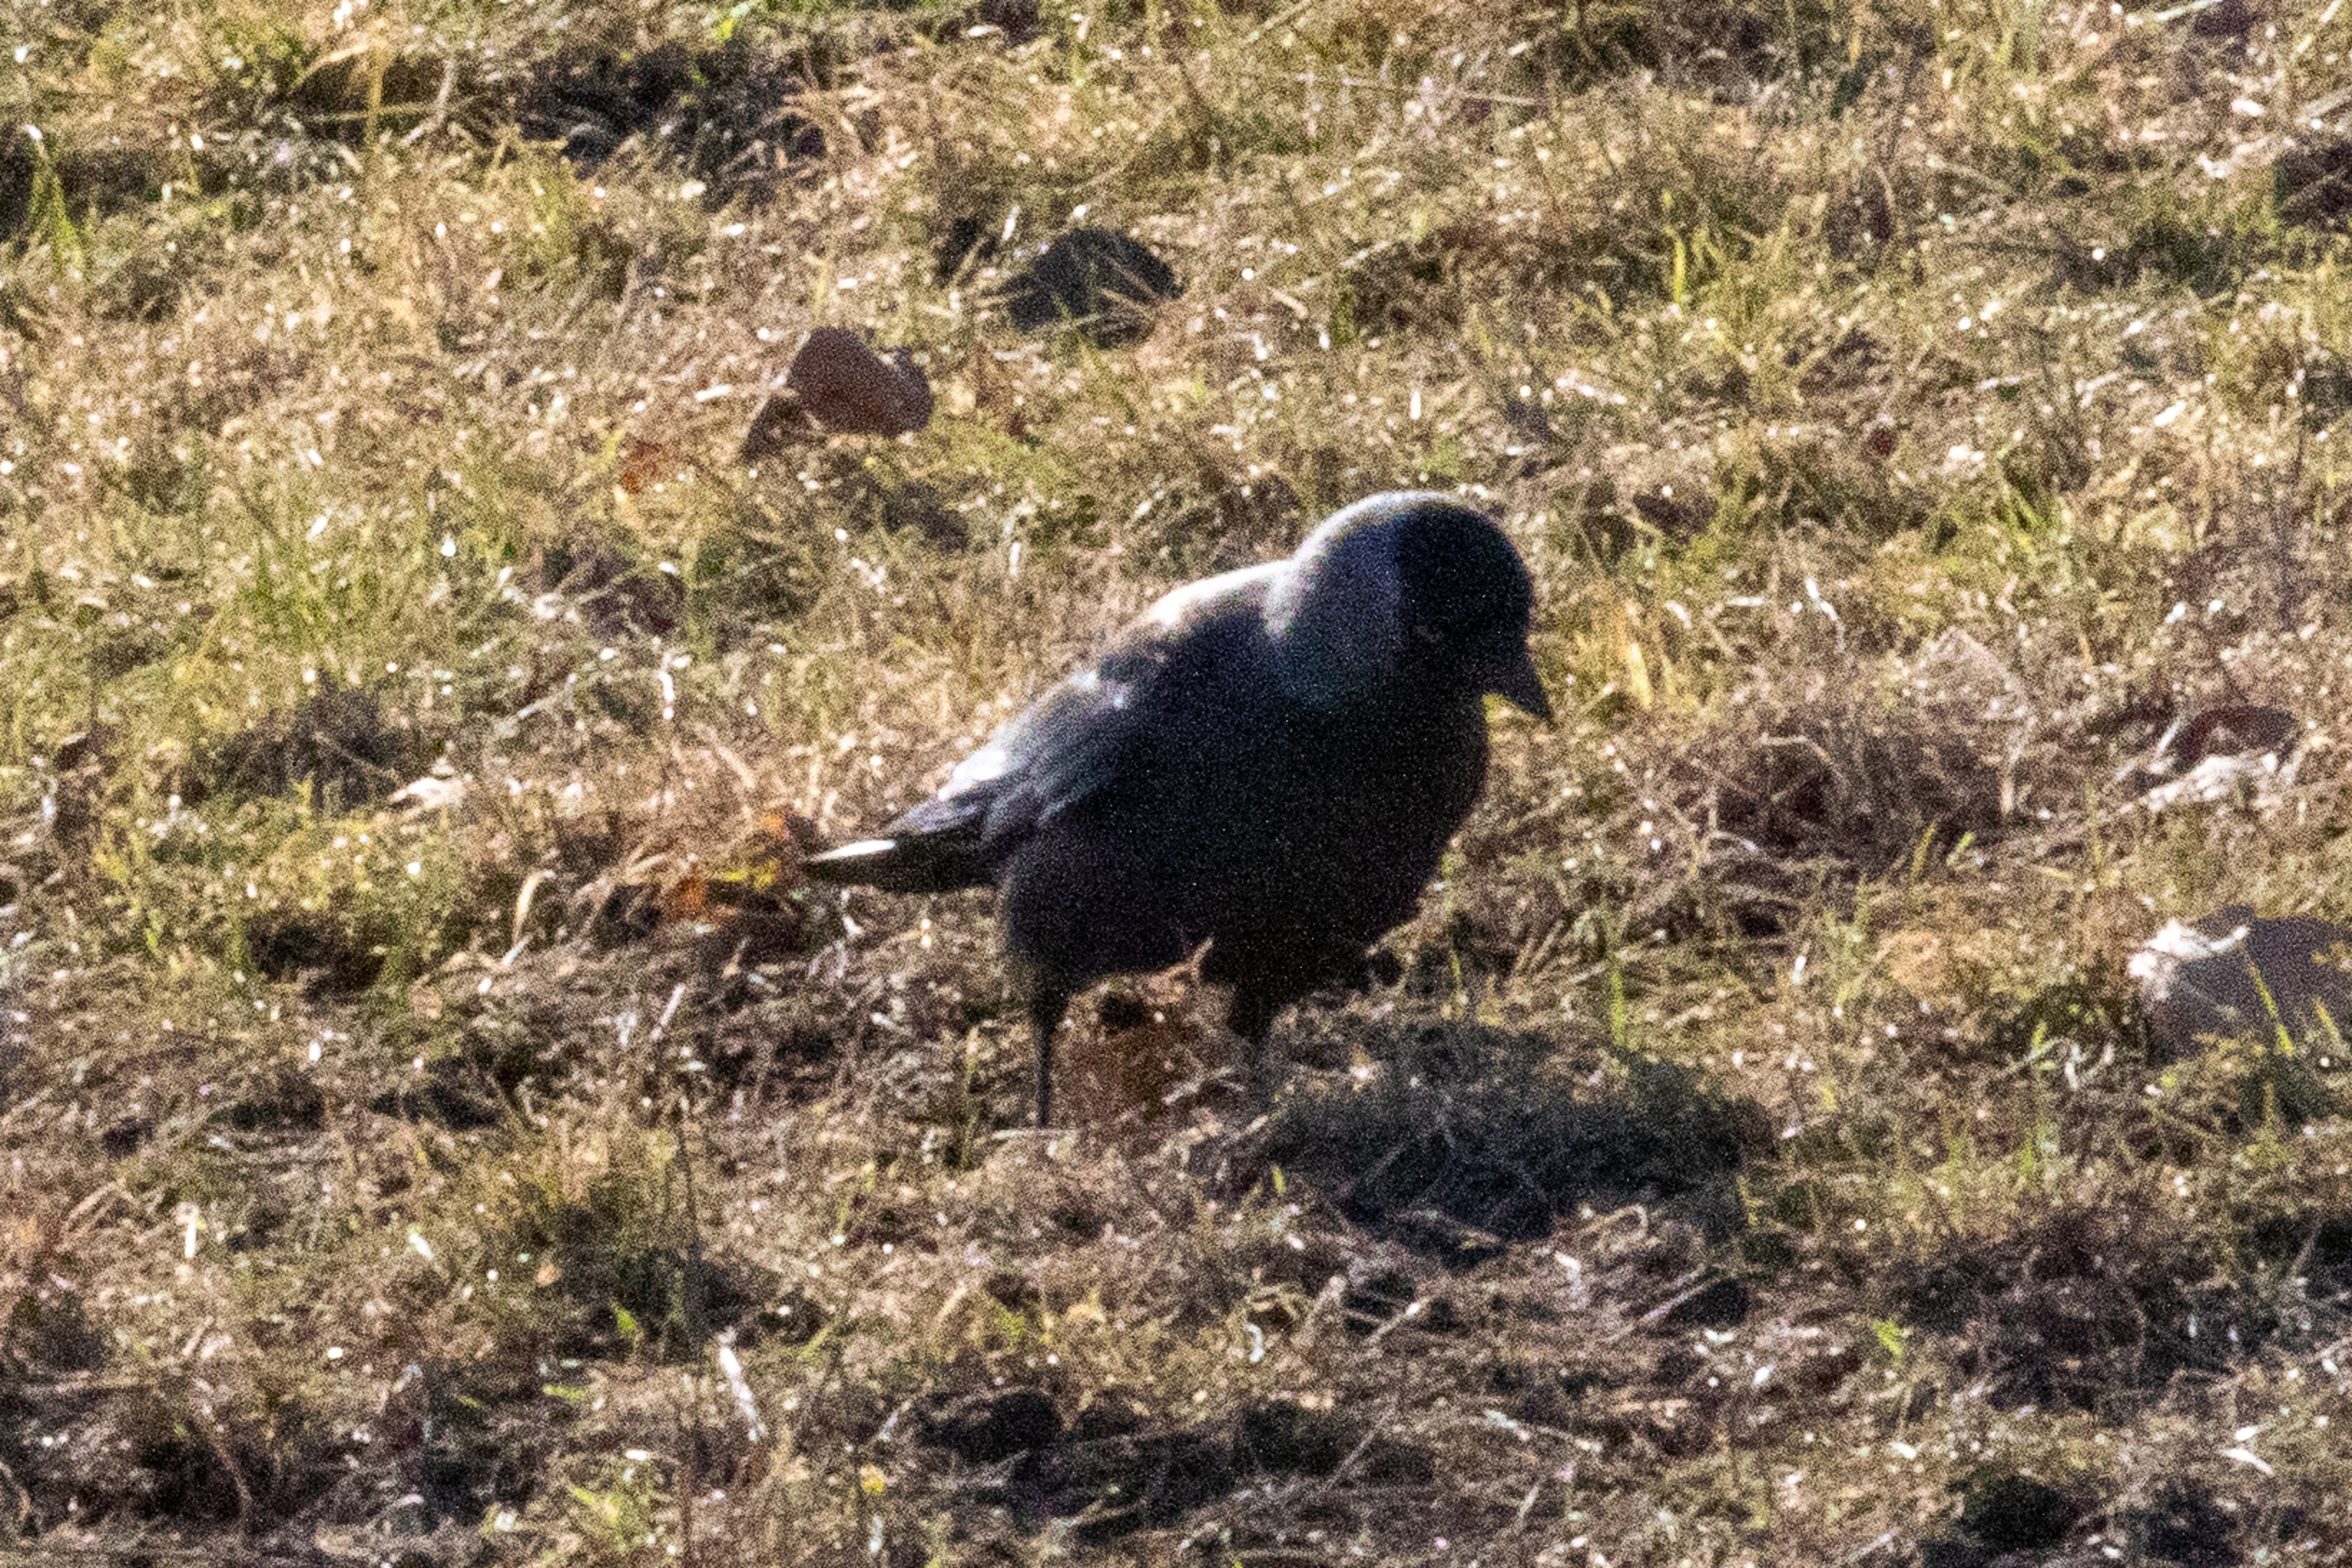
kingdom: Animalia
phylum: Chordata
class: Aves
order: Passeriformes
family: Corvidae
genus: Coloeus
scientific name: Coloeus monedula
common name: Allike
